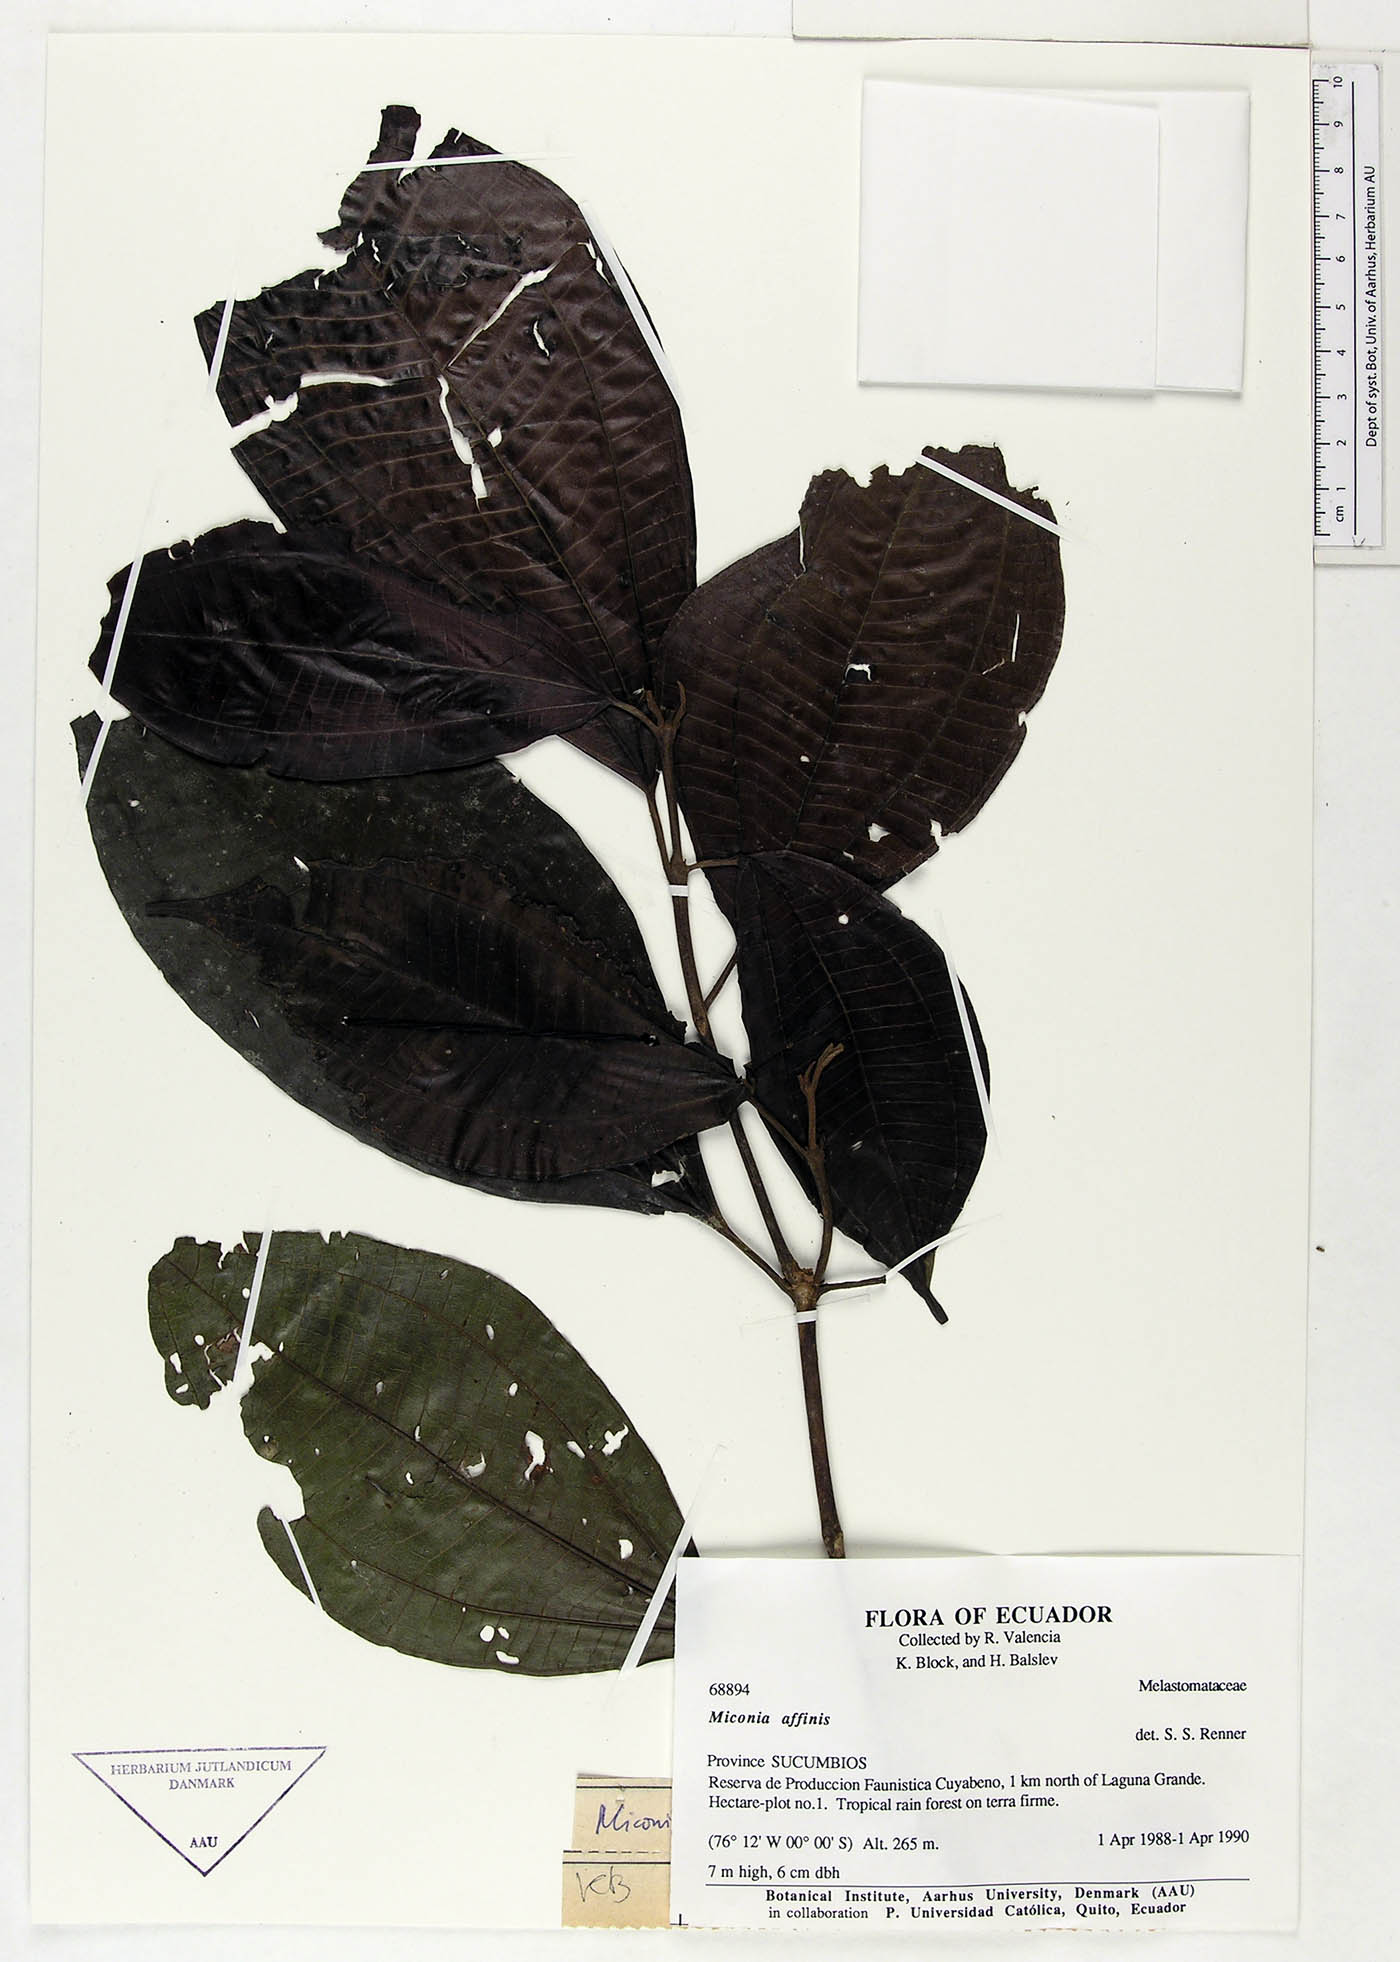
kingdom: Plantae
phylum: Tracheophyta
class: Magnoliopsida
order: Myrtales
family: Melastomataceae
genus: Miconia
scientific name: Miconia affinis
